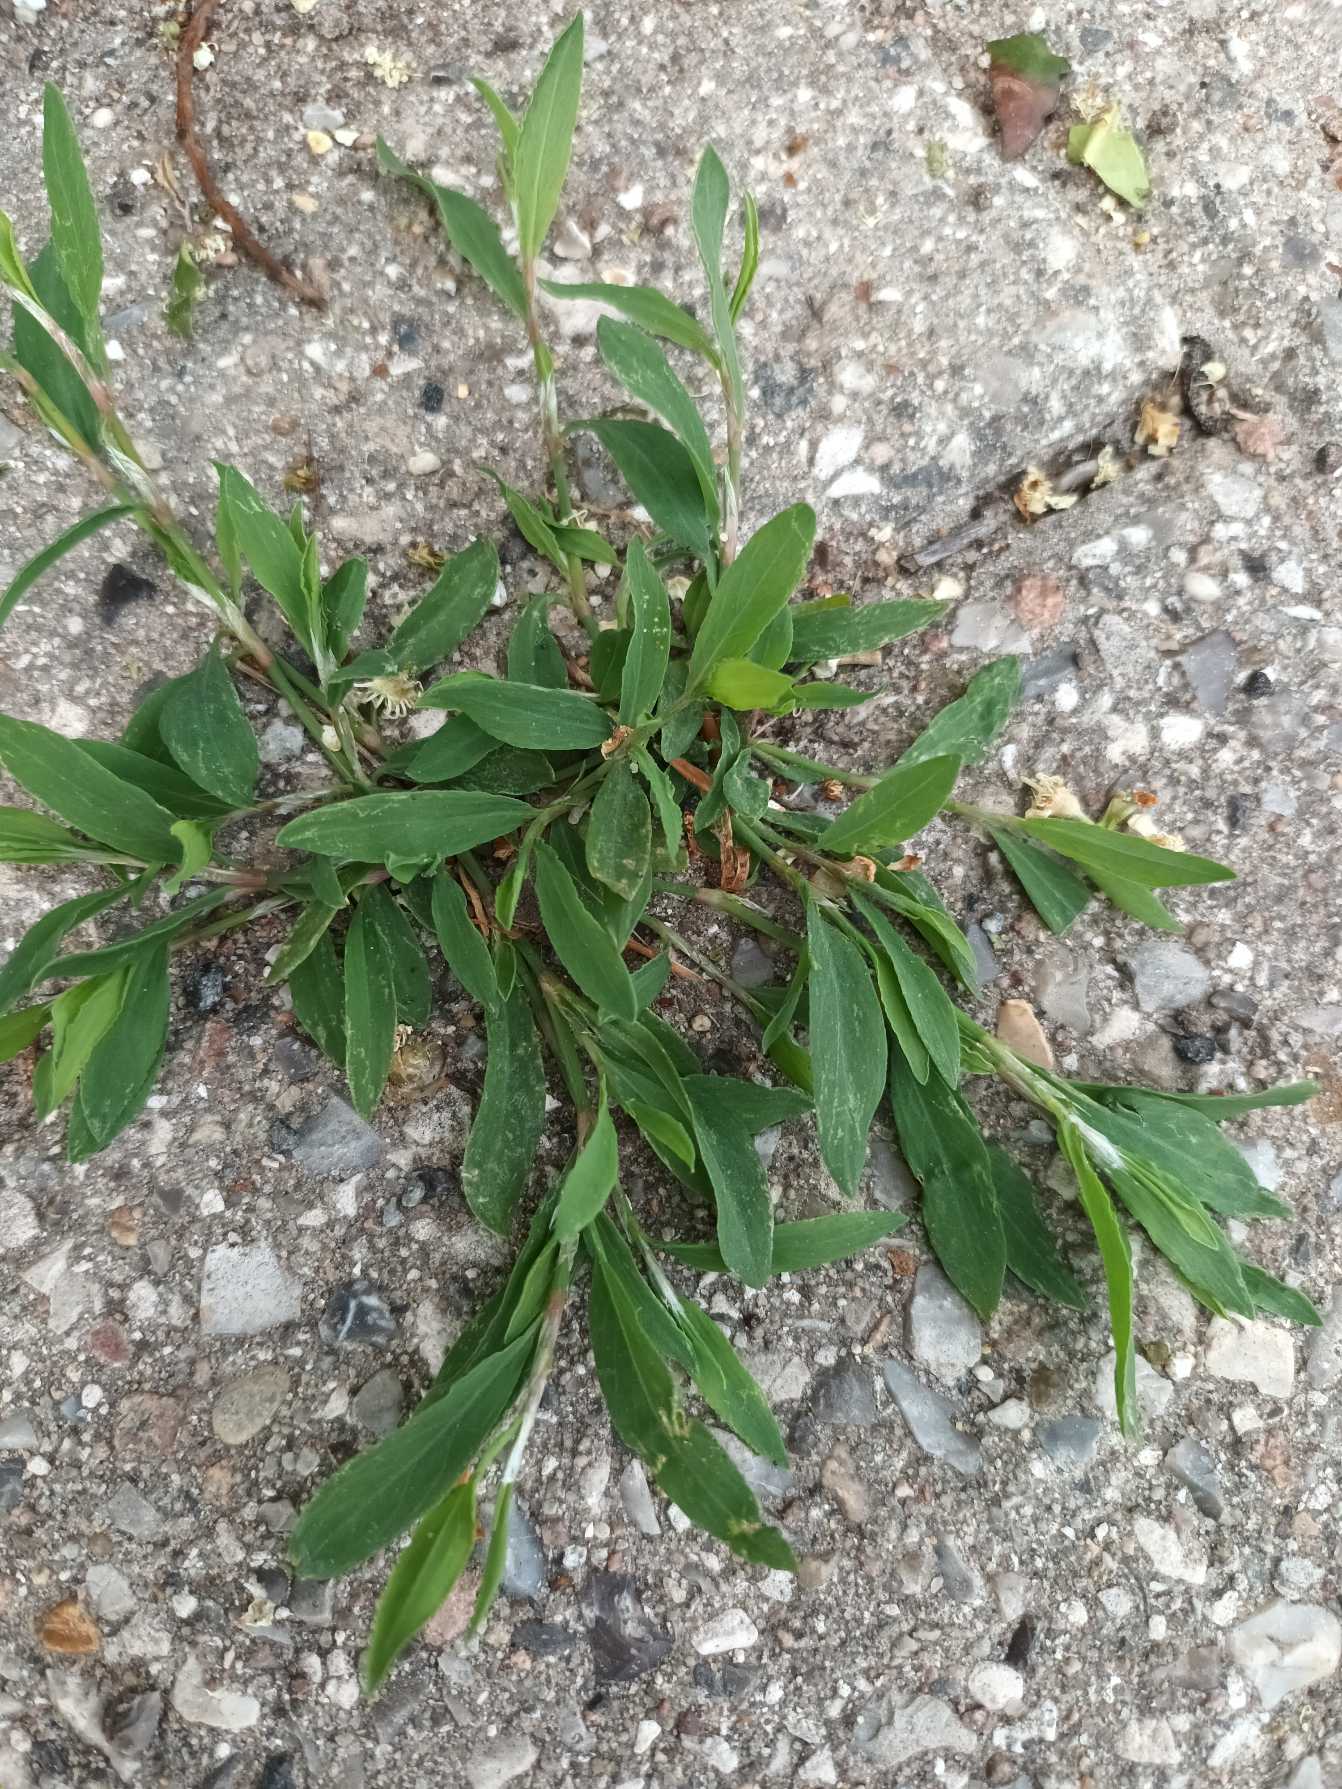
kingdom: Plantae
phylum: Tracheophyta
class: Magnoliopsida
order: Caryophyllales
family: Polygonaceae
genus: Polygonum
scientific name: Polygonum aviculare
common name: Vej-pileurt (underart)
